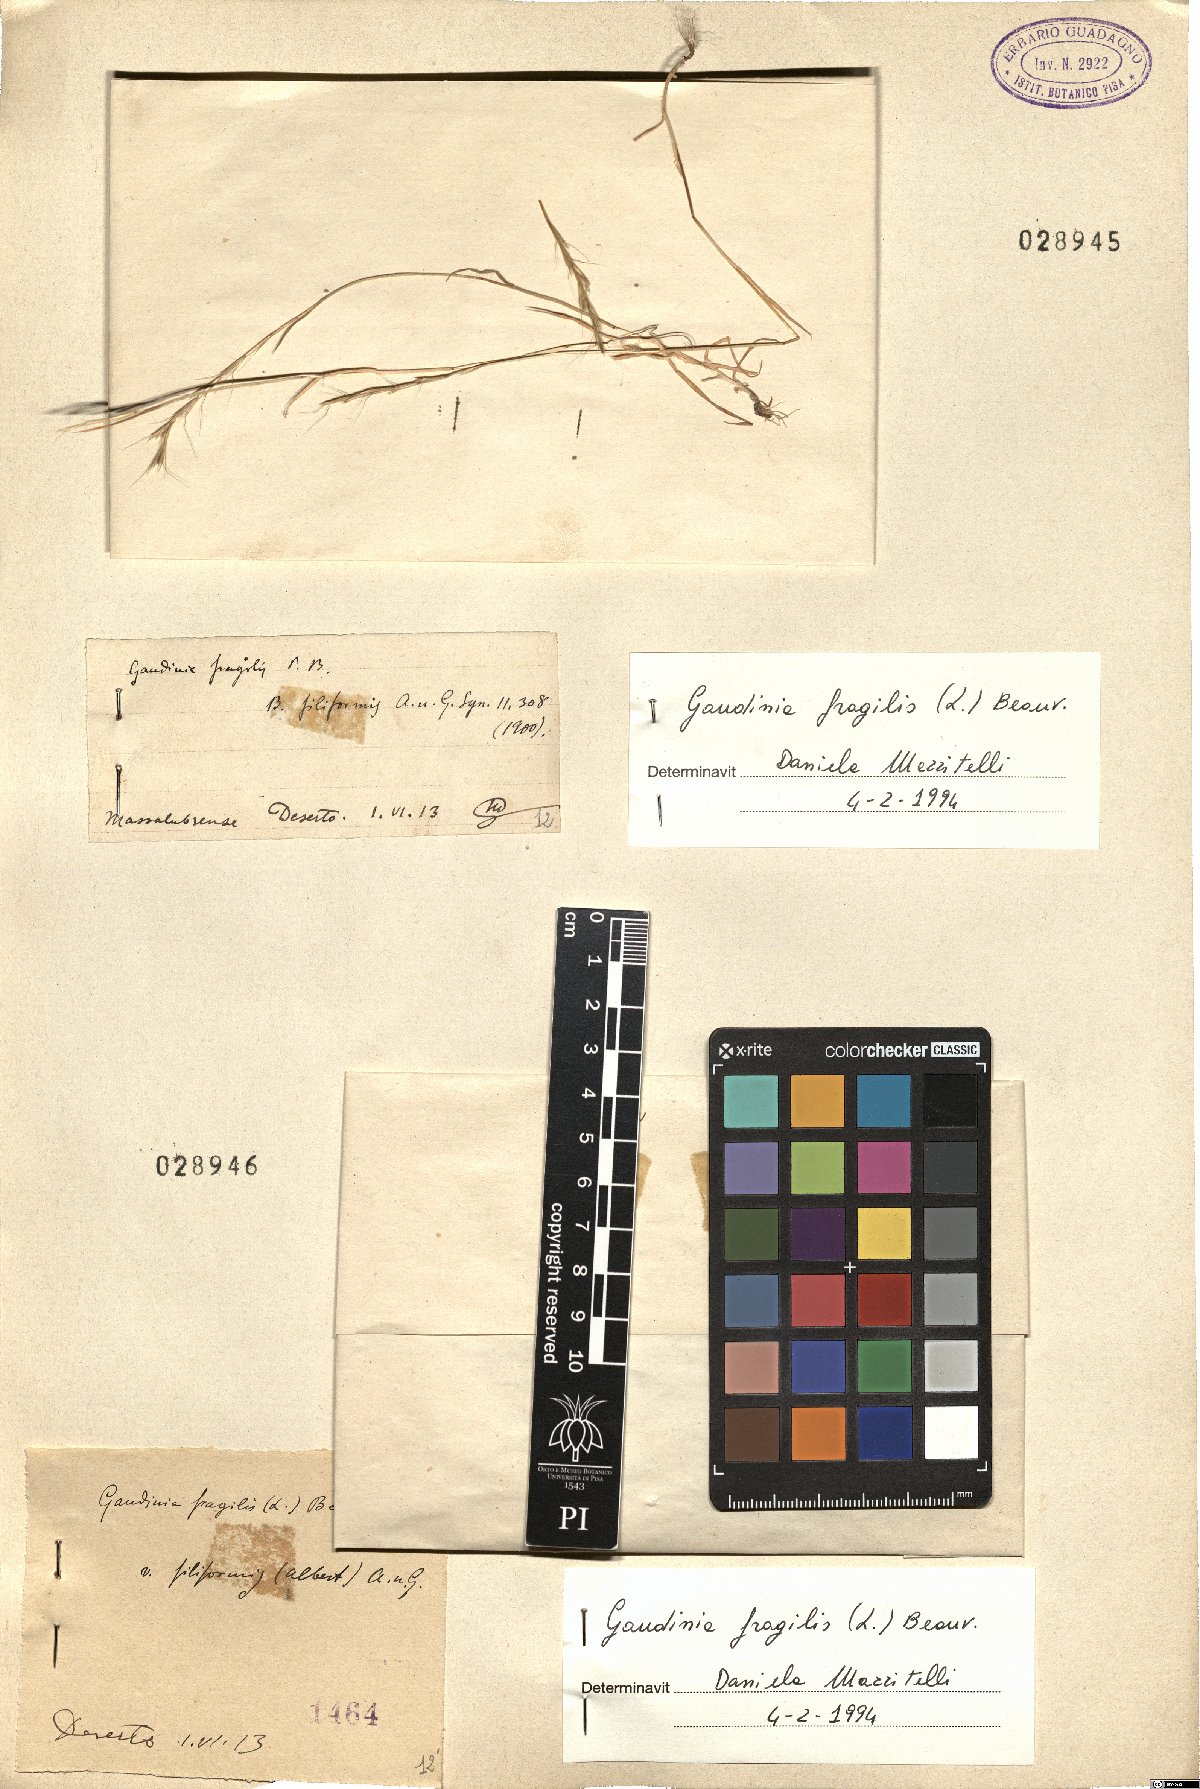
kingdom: Plantae
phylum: Tracheophyta
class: Liliopsida
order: Poales
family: Poaceae
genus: Gaudinia
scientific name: Gaudinia fragilis
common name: French oat-grass
